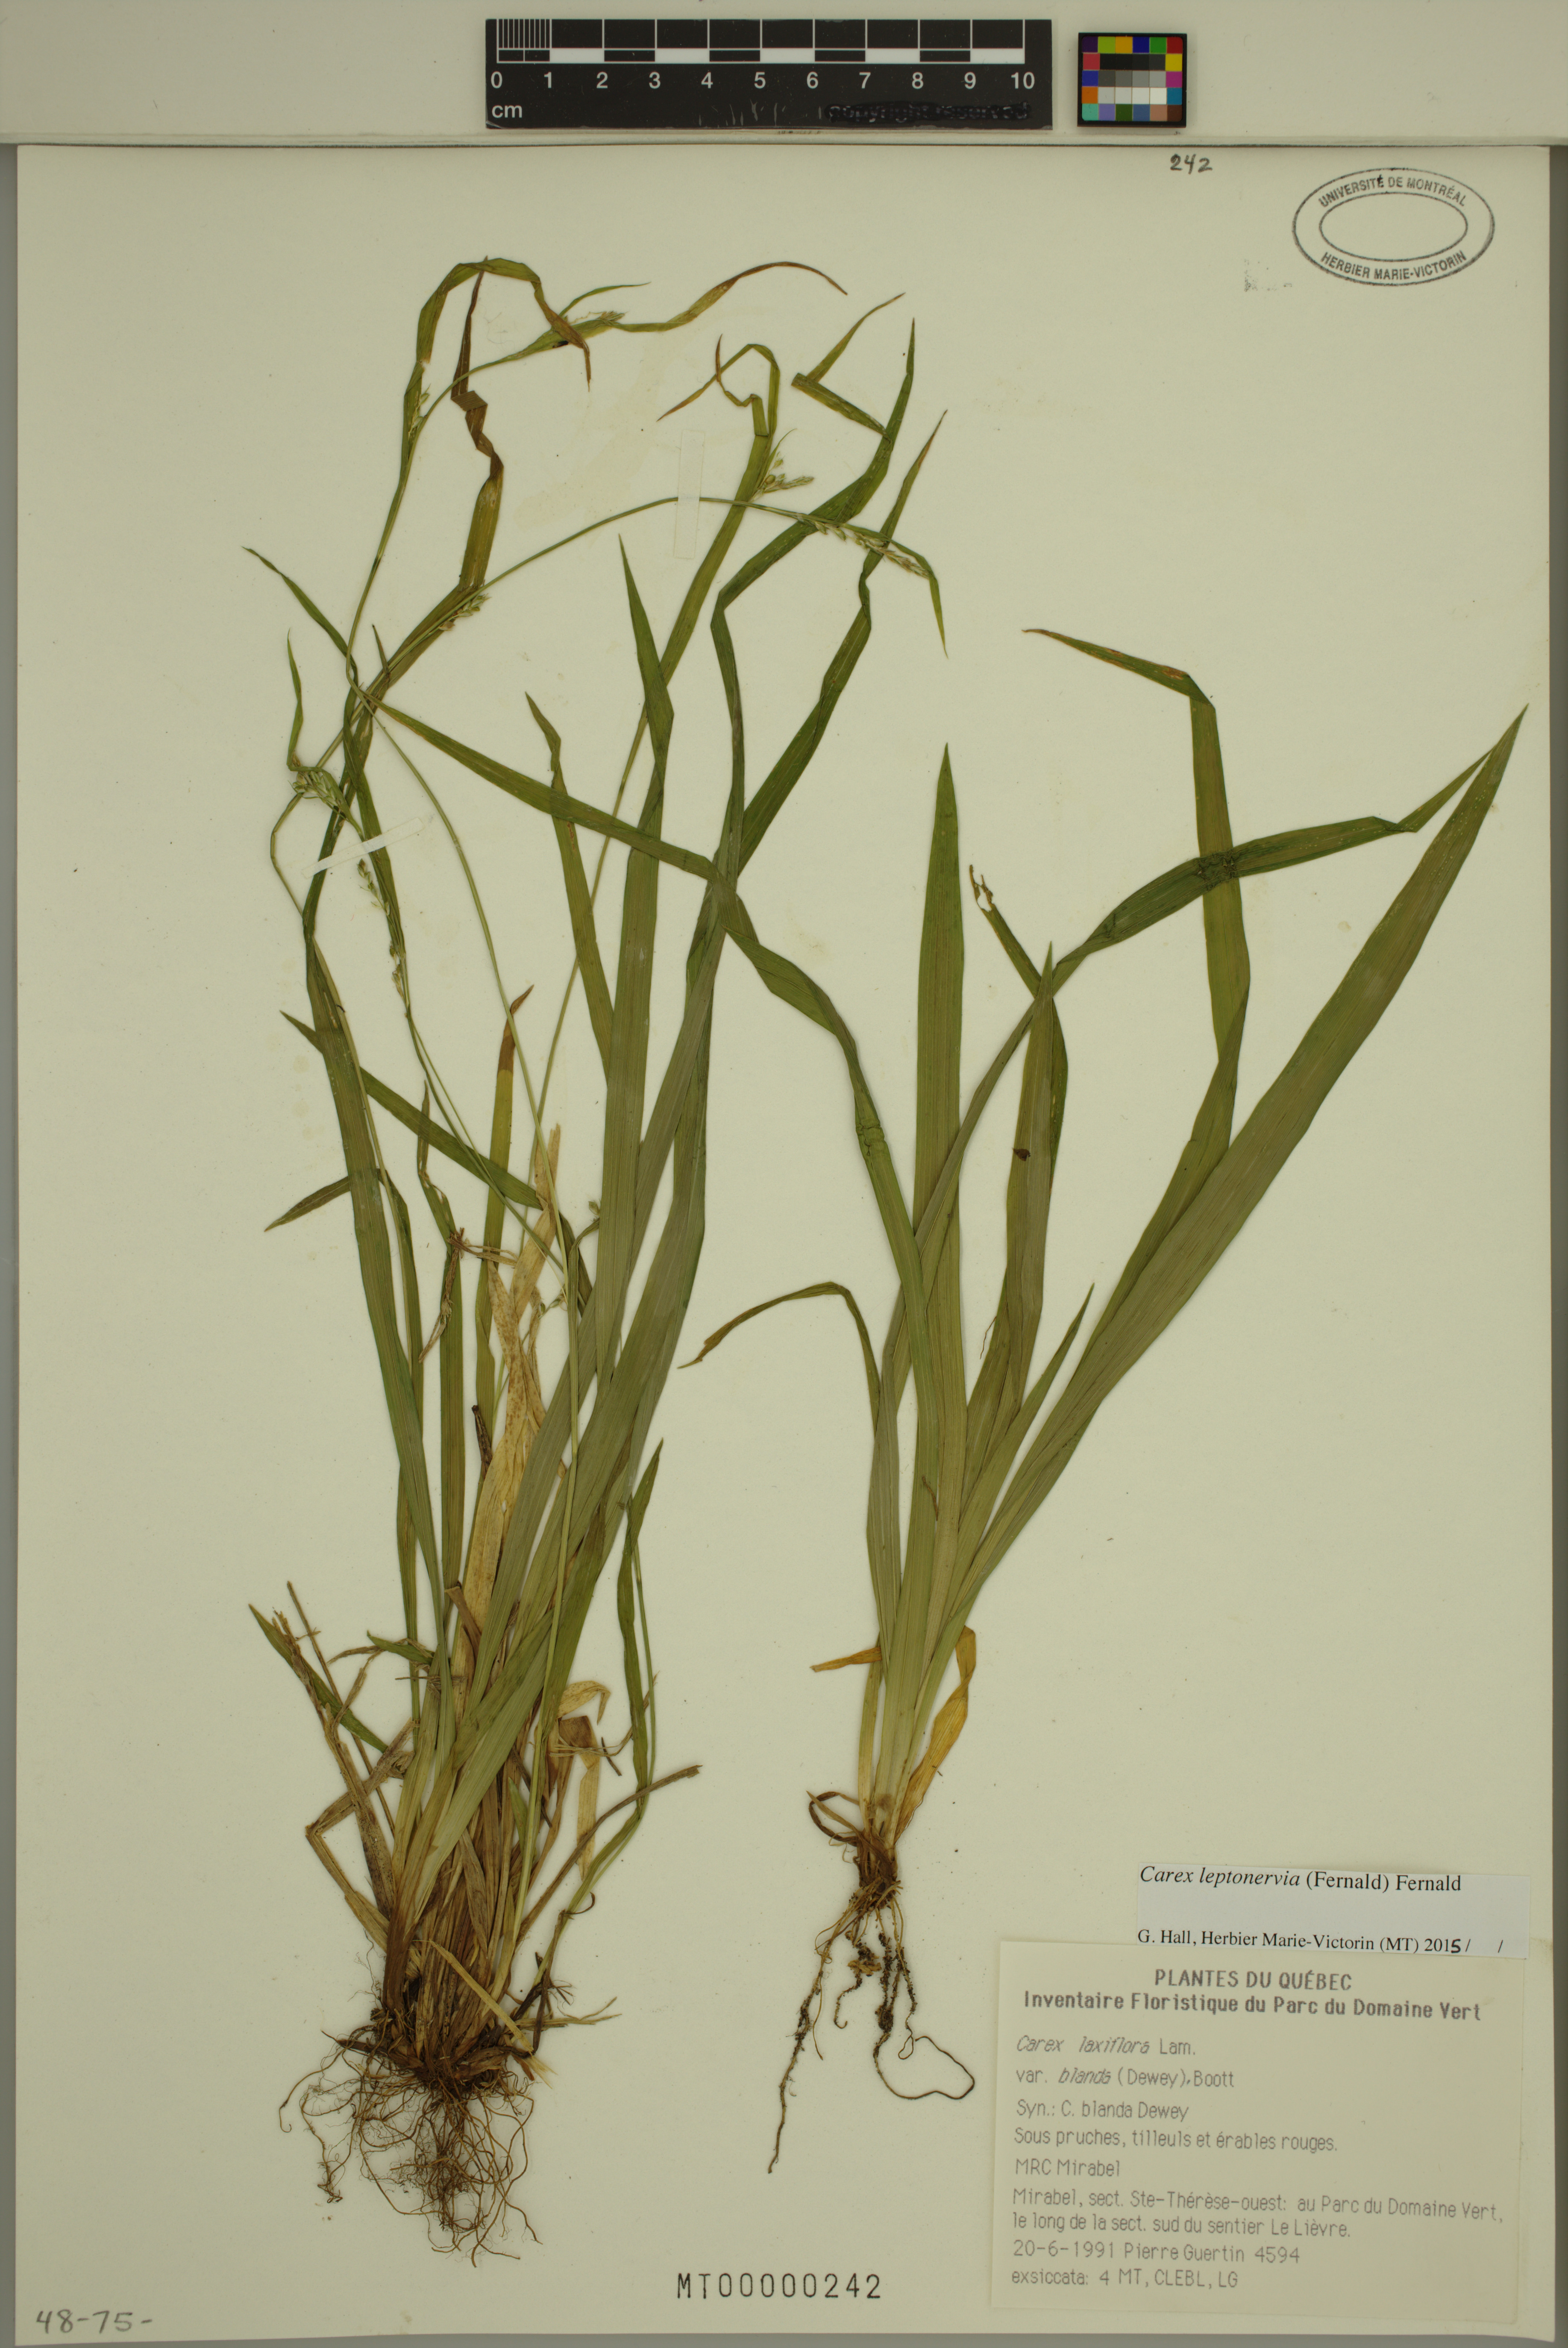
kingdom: Plantae
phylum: Tracheophyta
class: Liliopsida
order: Poales
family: Cyperaceae
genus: Carex
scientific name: Carex leptonervia
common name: Few-nerved wood sedge
